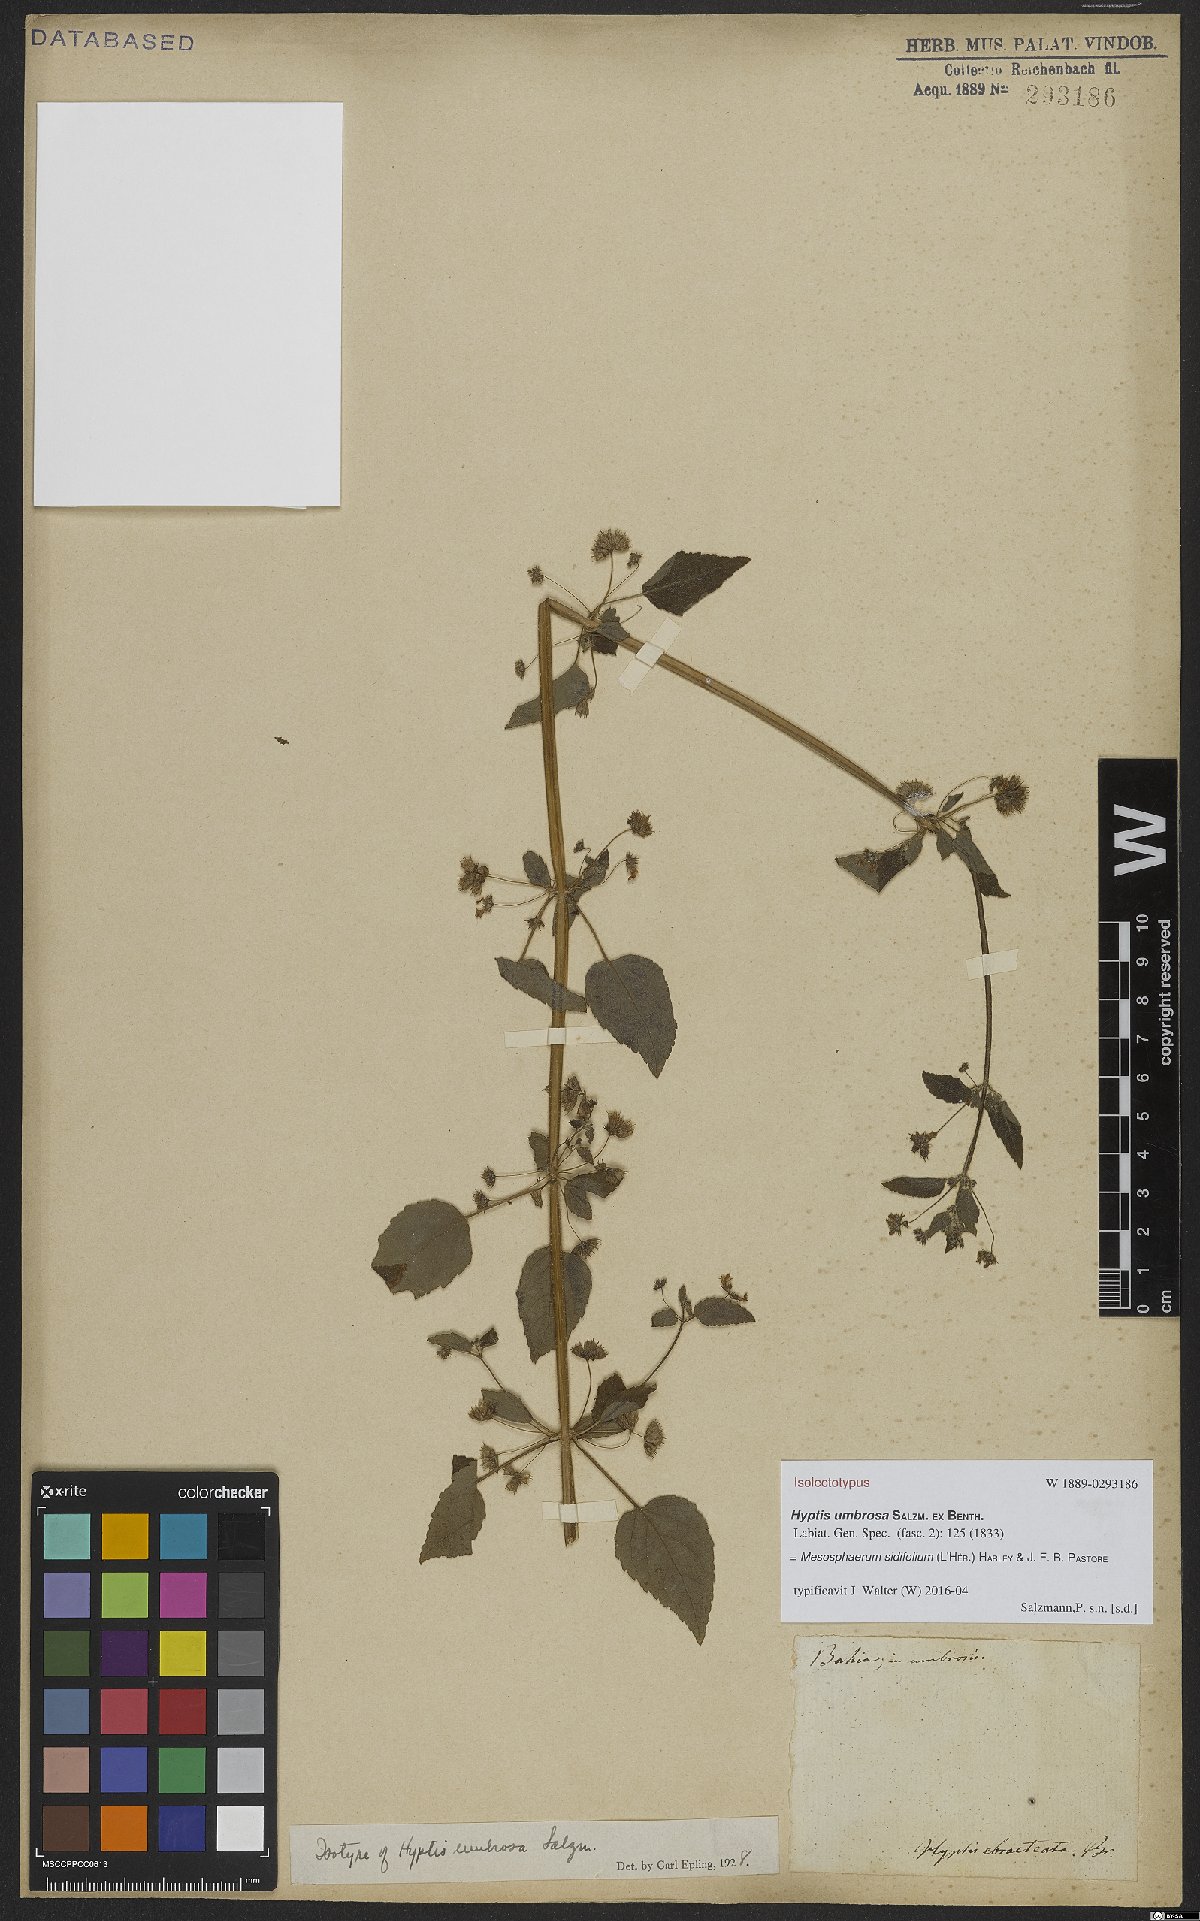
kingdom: Plantae
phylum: Tracheophyta
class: Magnoliopsida
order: Lamiales
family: Lamiaceae
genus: Mesosphaerum
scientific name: Mesosphaerum sidifolium
